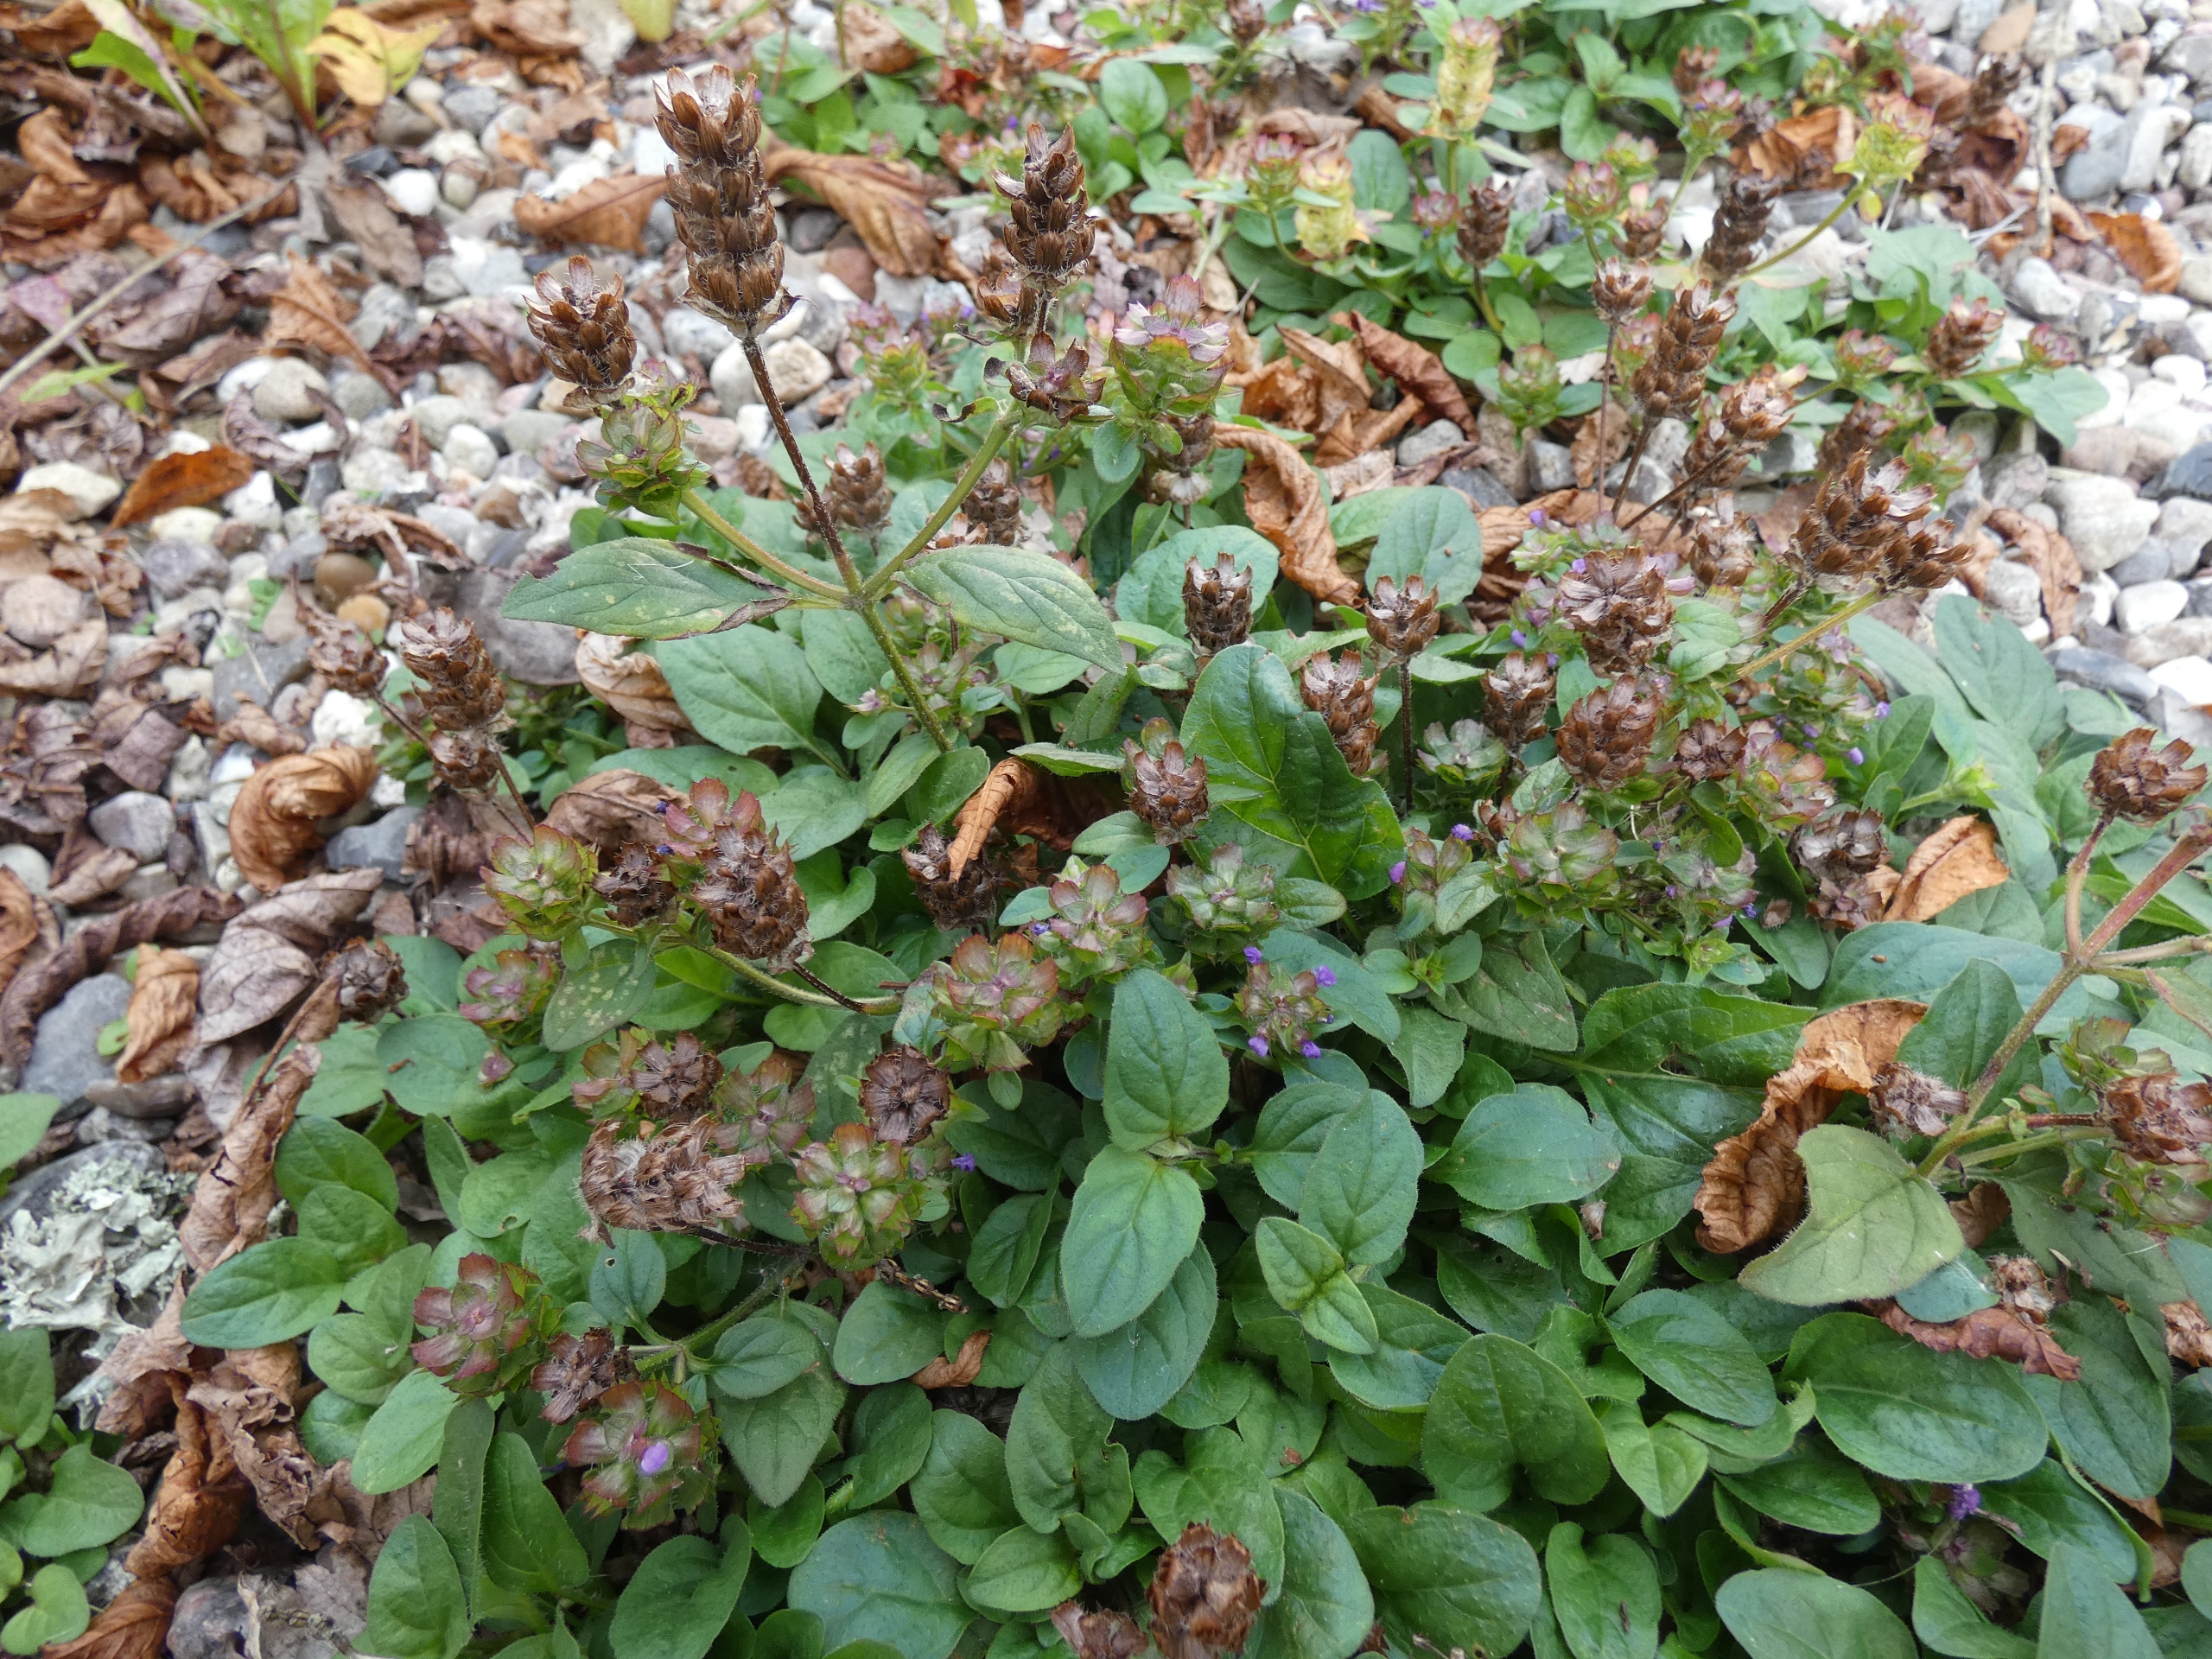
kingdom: Plantae
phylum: Tracheophyta
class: Magnoliopsida
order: Lamiales
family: Lamiaceae
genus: Prunella
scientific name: Prunella vulgaris
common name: Almindelig brunelle
